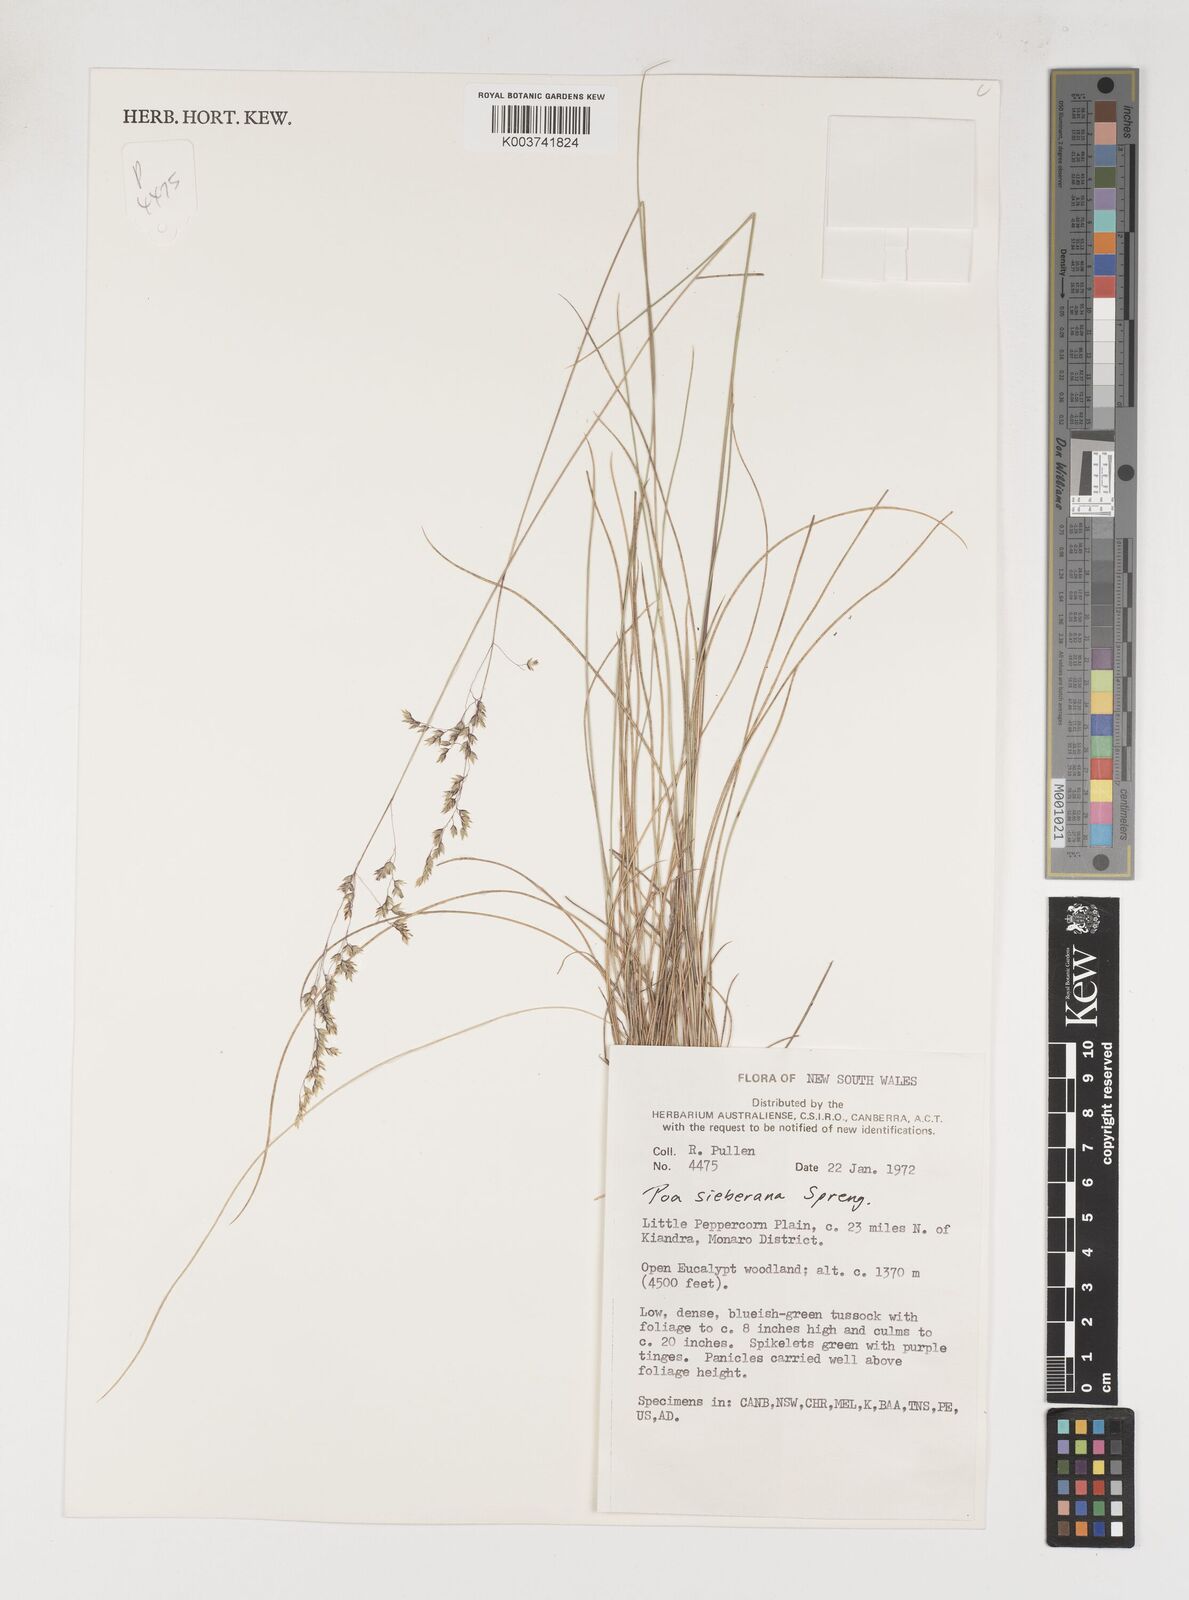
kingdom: Plantae
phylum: Tracheophyta
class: Liliopsida
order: Poales
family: Poaceae
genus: Poa
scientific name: Poa sieberiana
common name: Tussock poa
